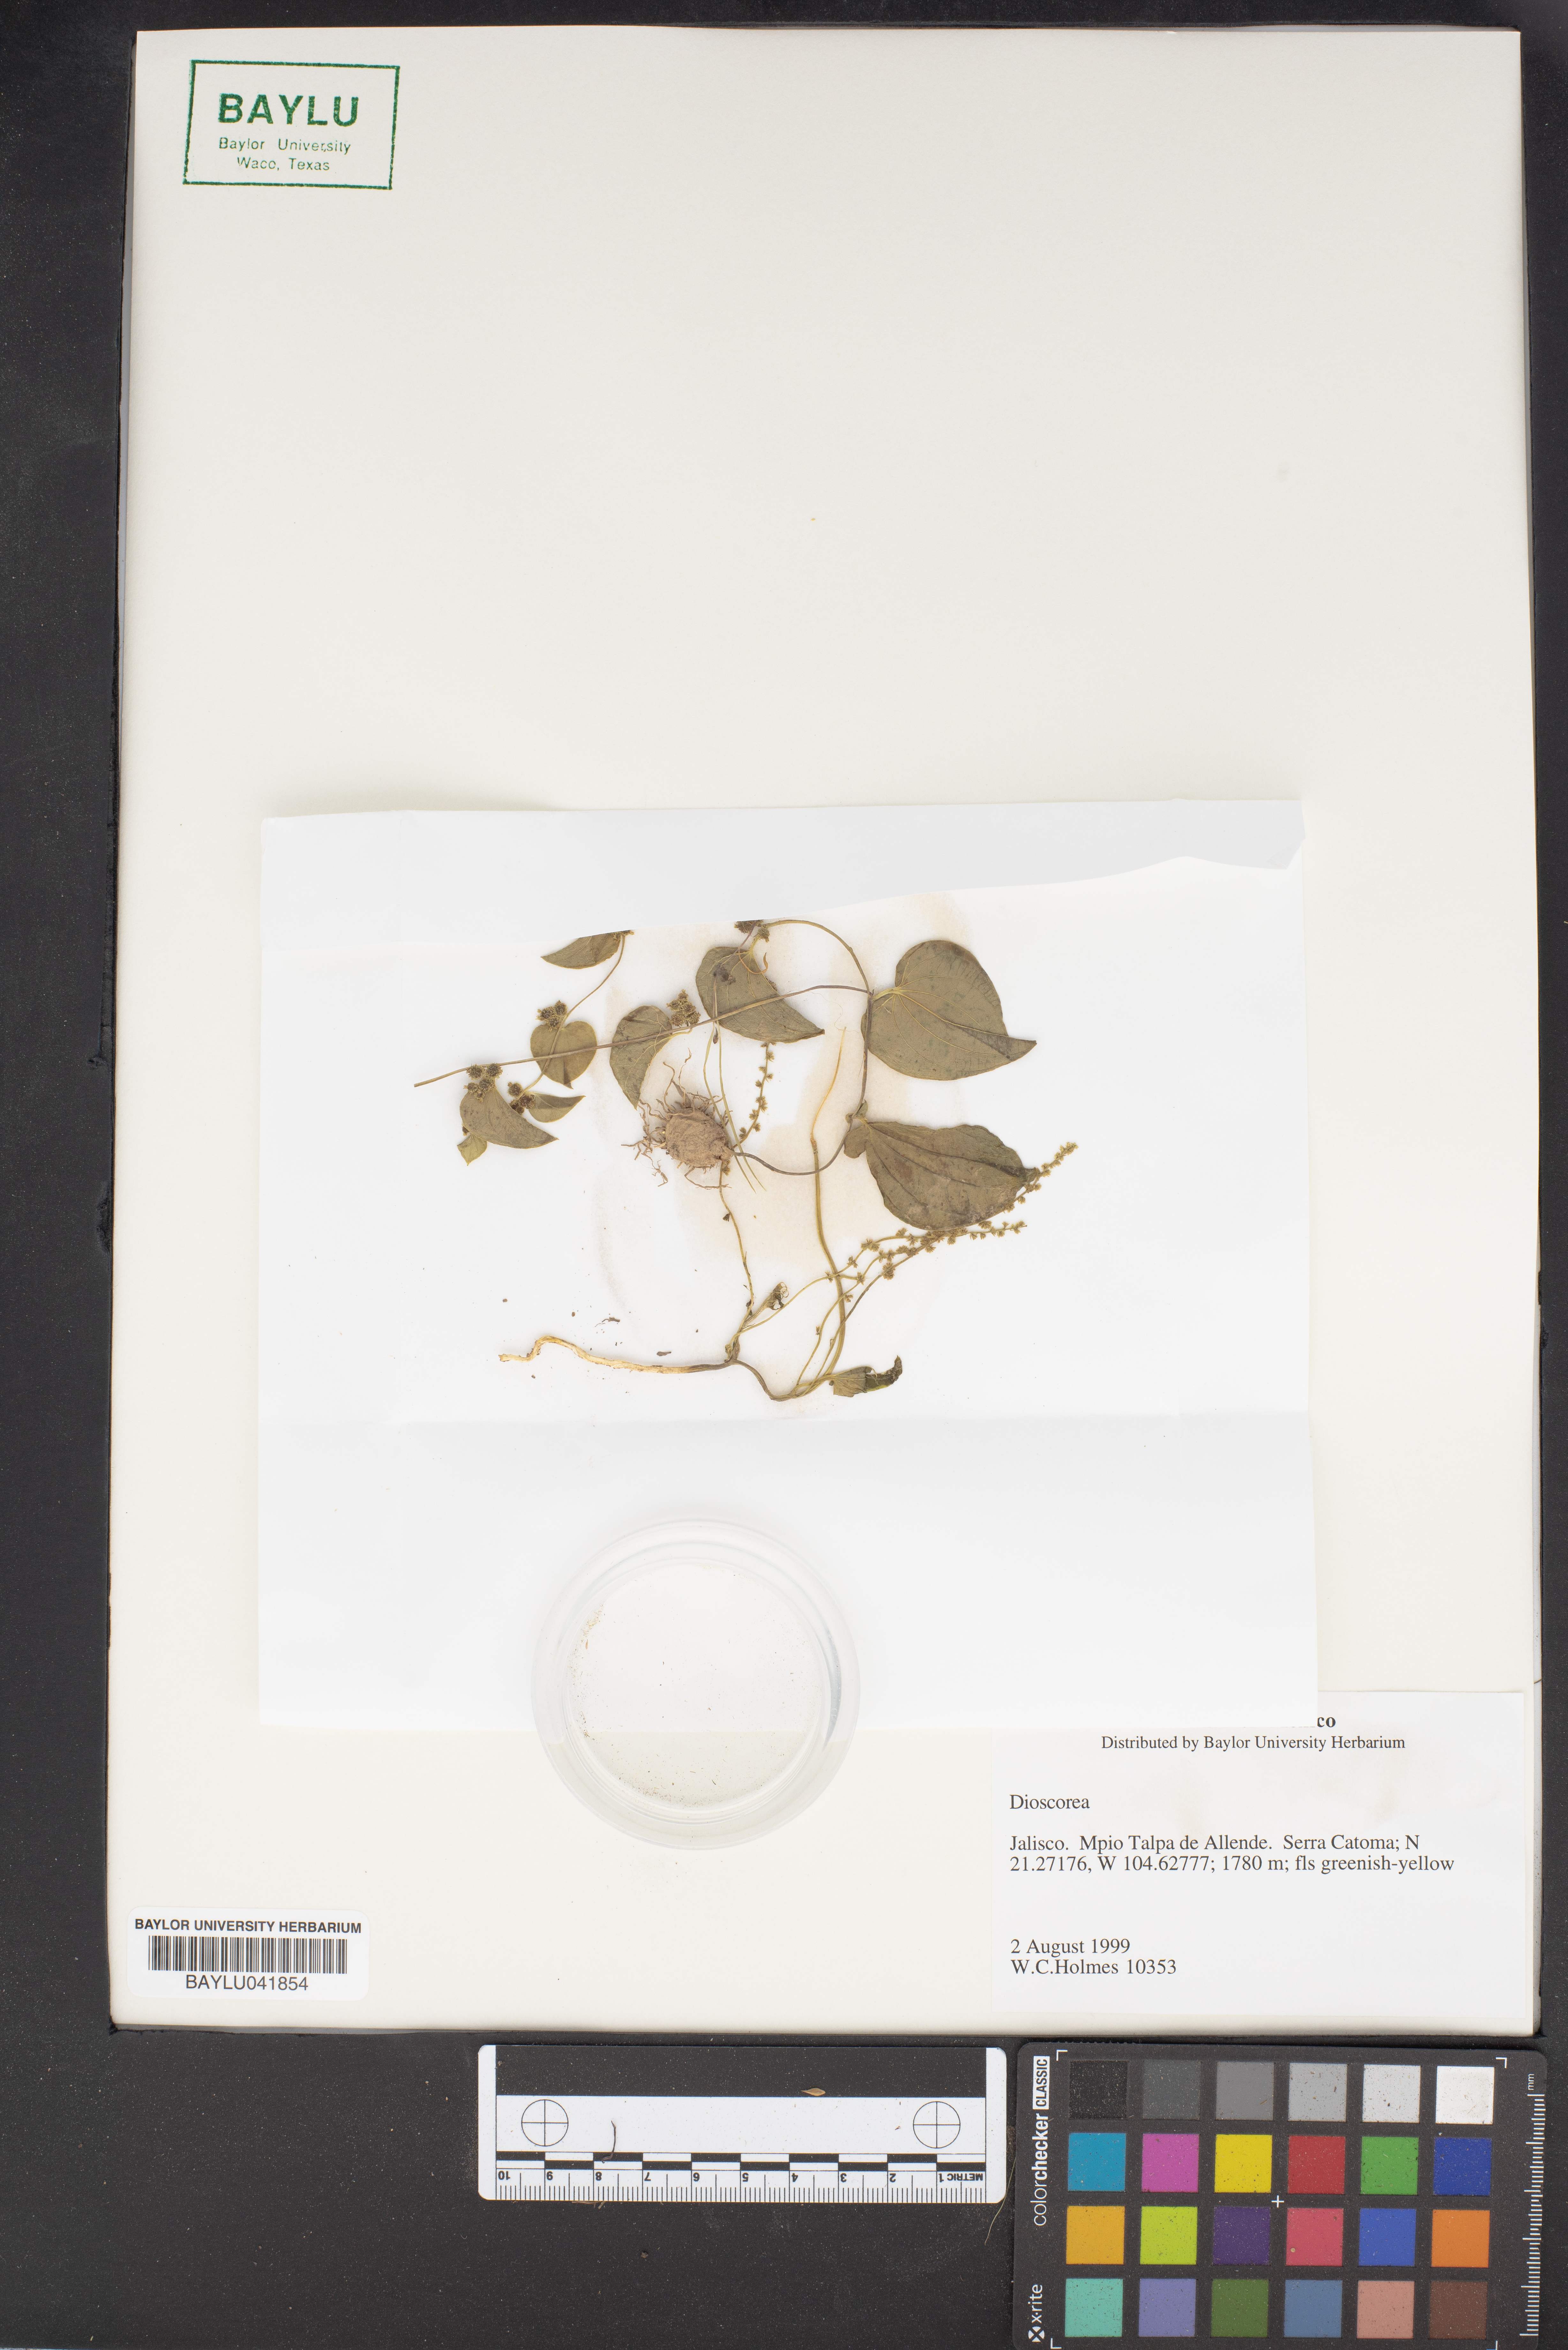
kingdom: Plantae
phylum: Tracheophyta
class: Liliopsida
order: Dioscoreales
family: Dioscoreaceae
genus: Dioscorea
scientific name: Dioscorea
